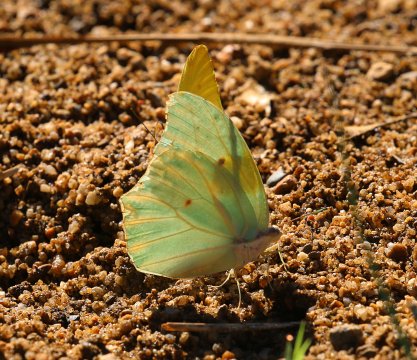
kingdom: Animalia
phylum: Arthropoda
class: Insecta
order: Lepidoptera
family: Pieridae
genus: Anteos
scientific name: Anteos clorinde
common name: White Angled-Sulphur
